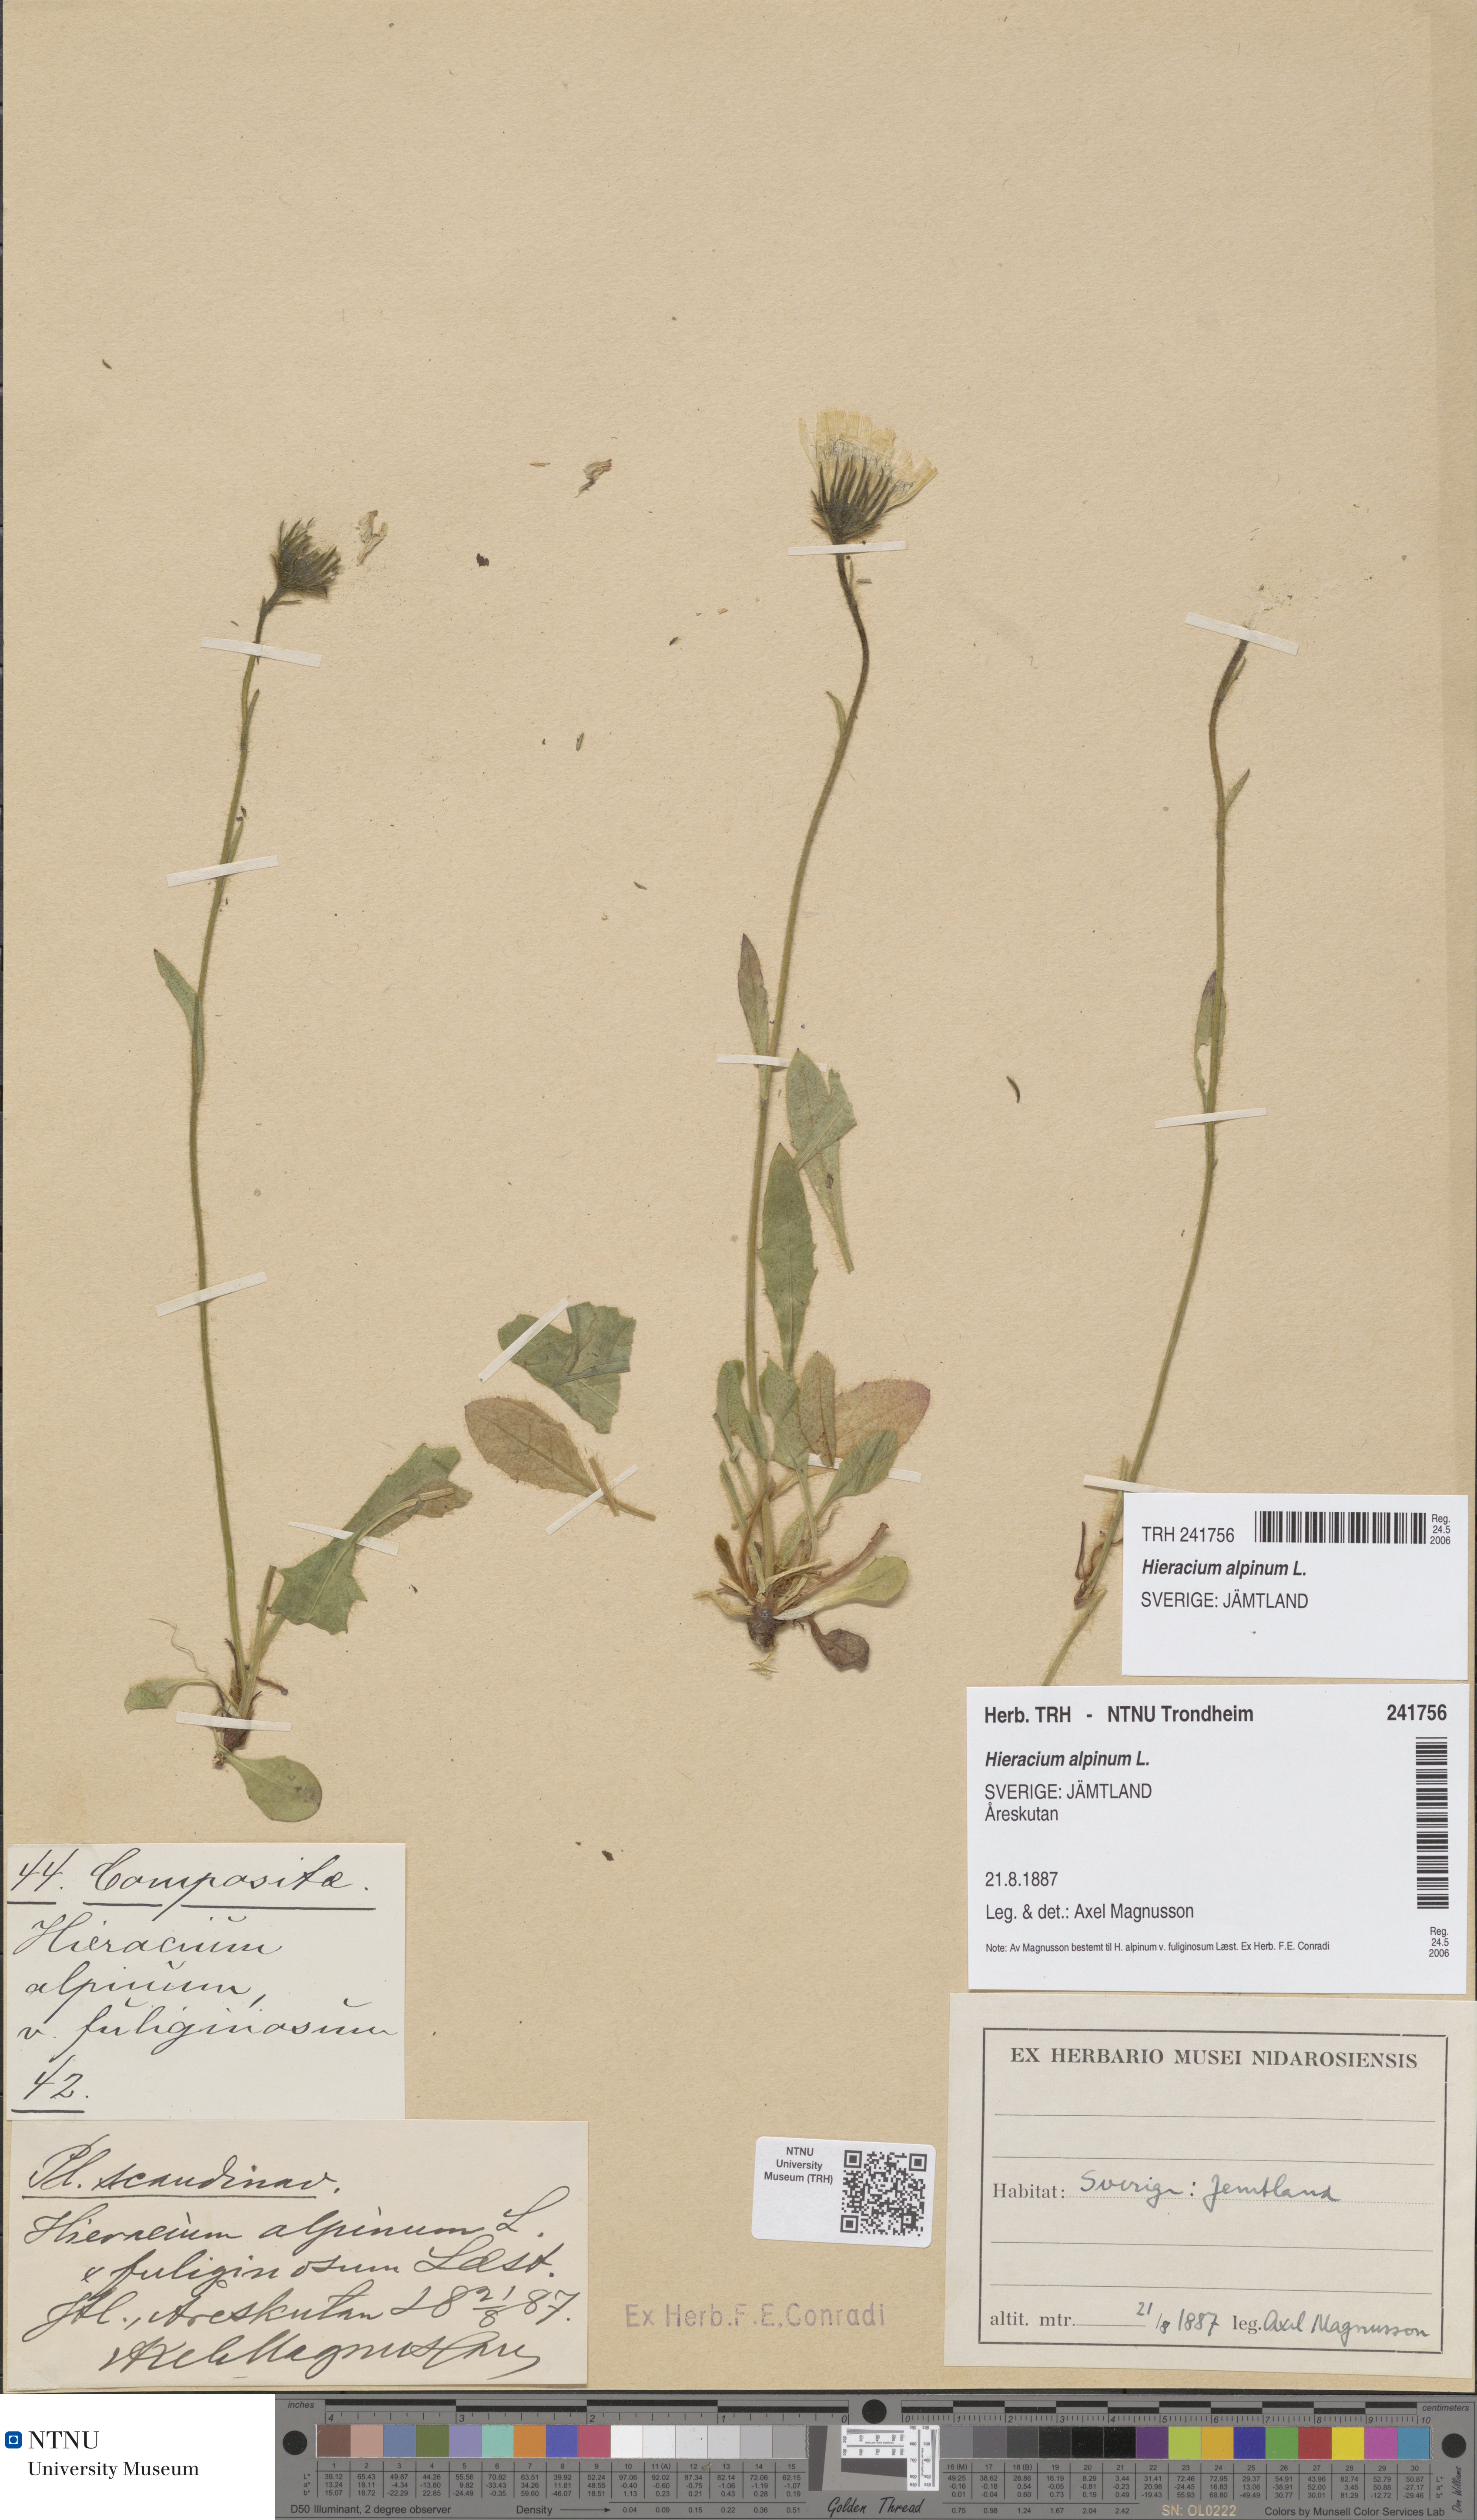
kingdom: Plantae
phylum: Tracheophyta
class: Magnoliopsida
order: Asterales
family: Asteraceae
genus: Hieracium
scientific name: Hieracium alpinum
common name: Alpine hawkweed
